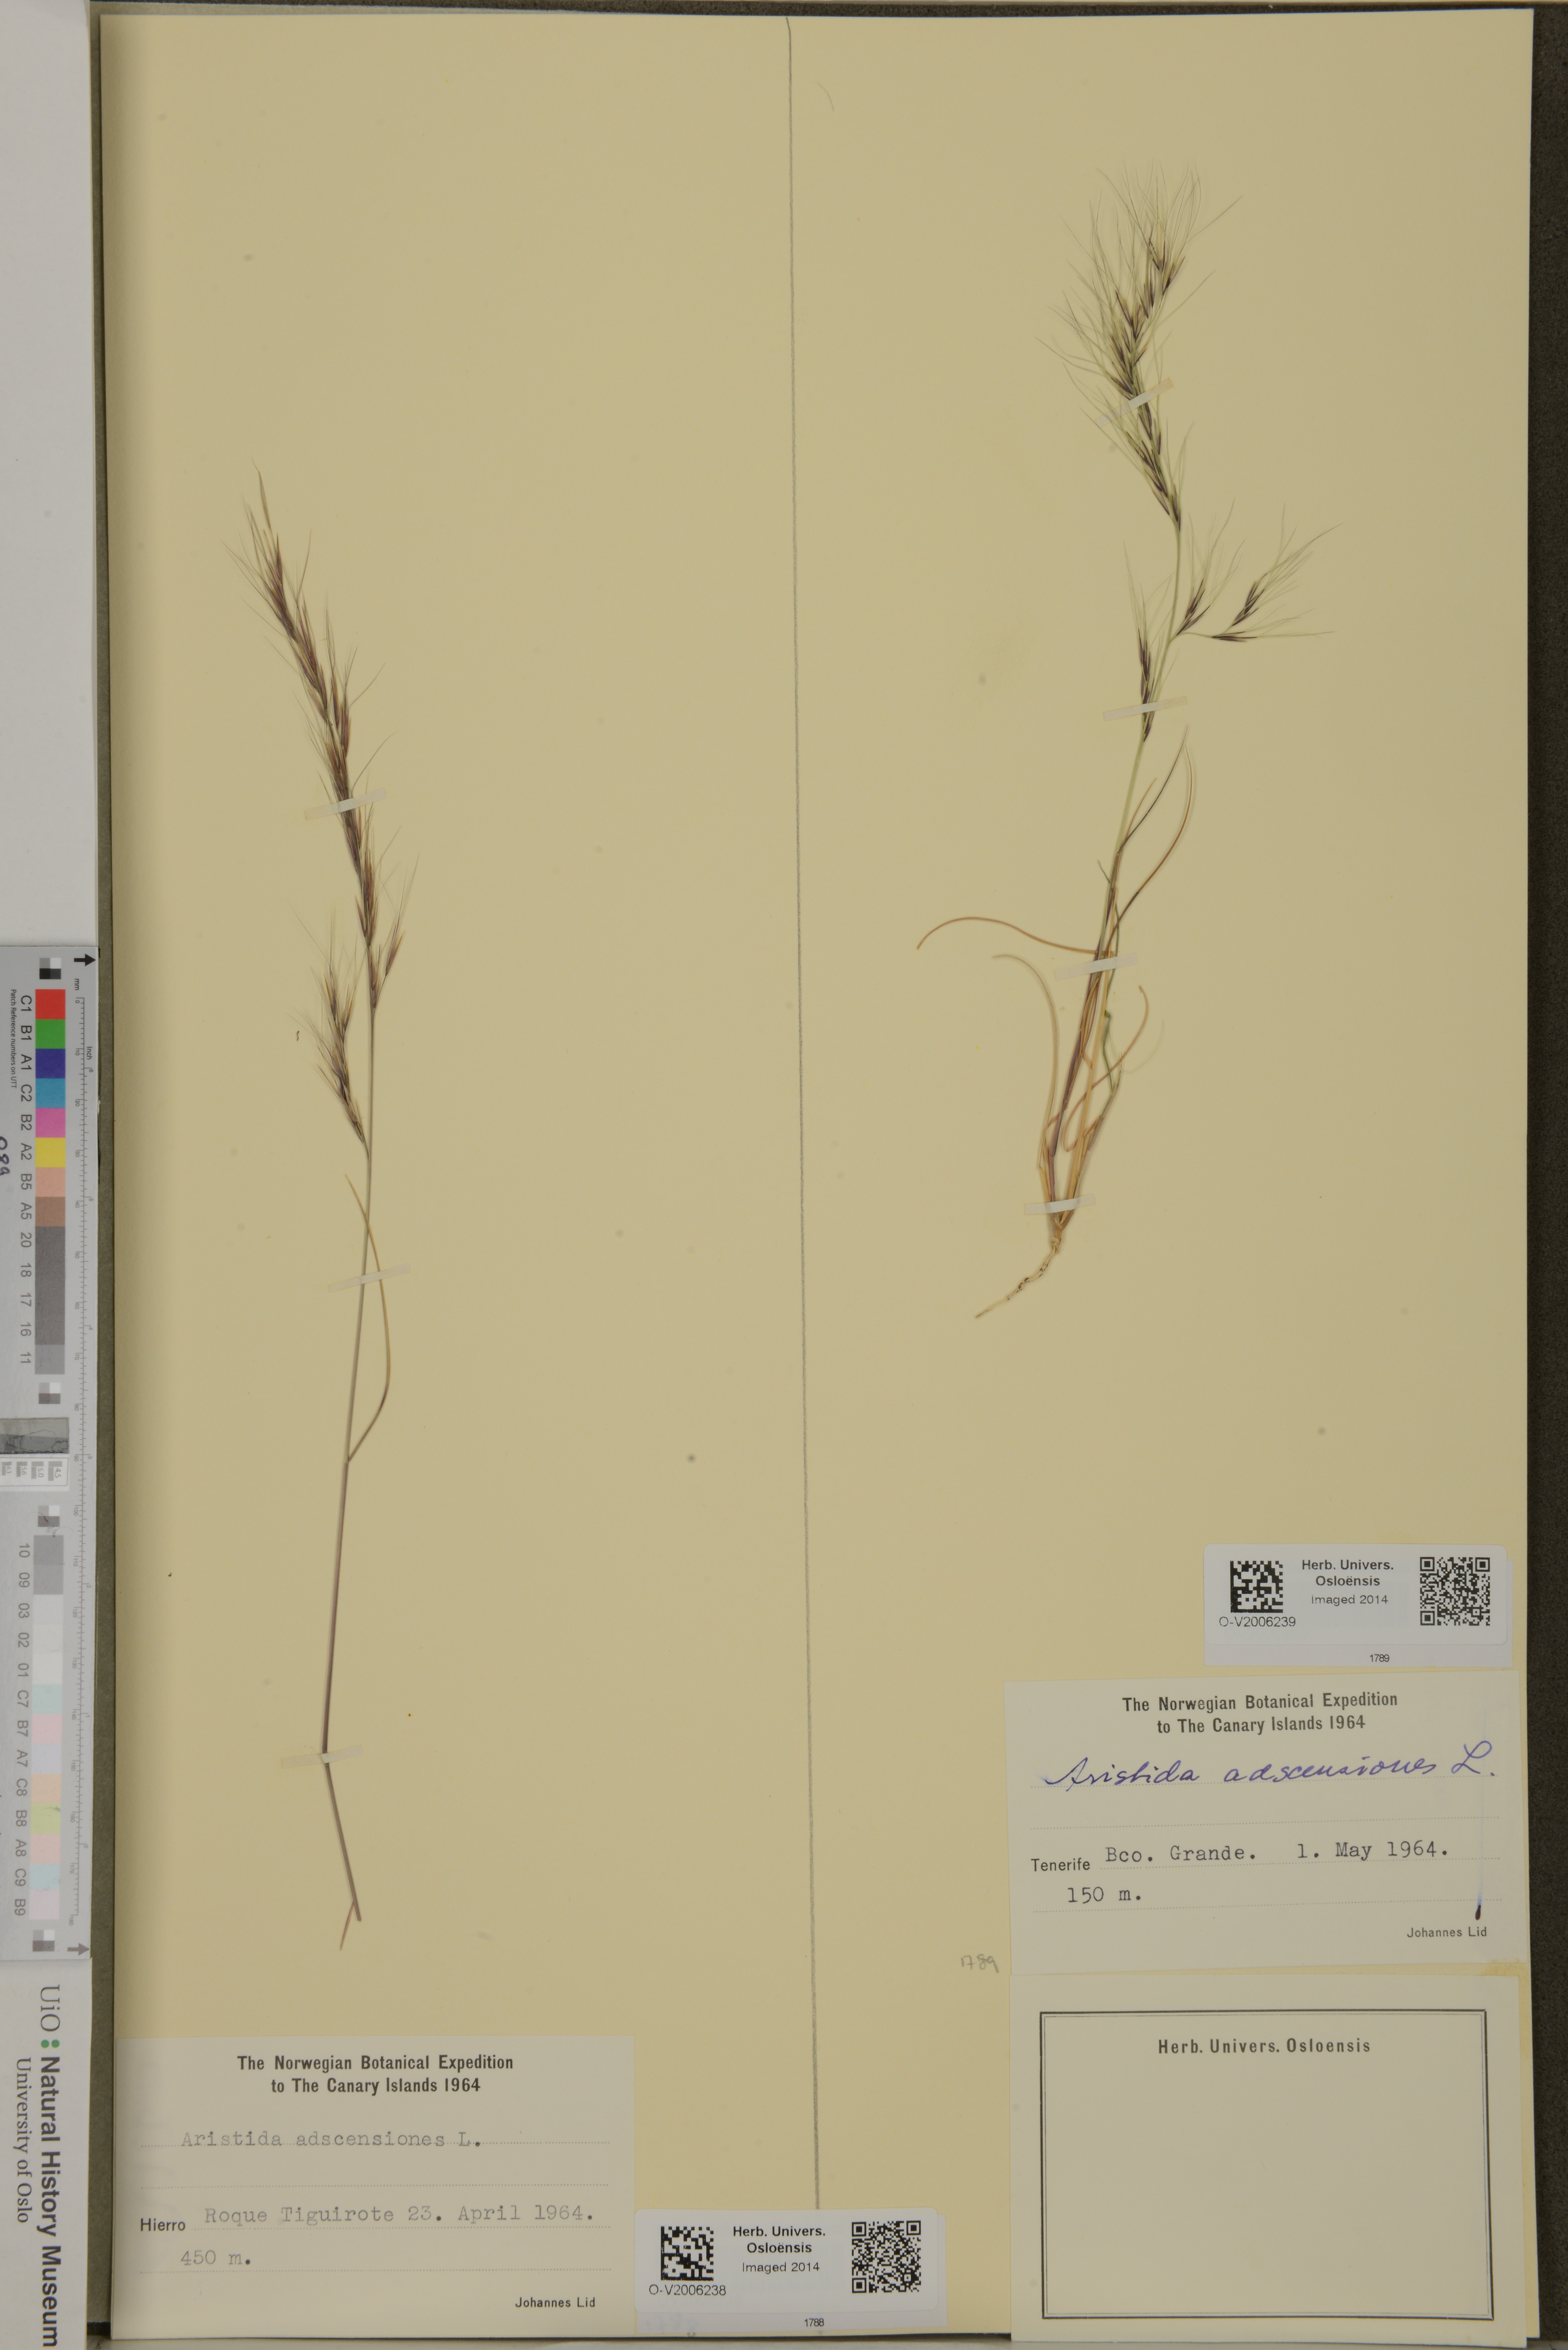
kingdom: Plantae
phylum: Tracheophyta
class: Liliopsida
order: Poales
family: Poaceae
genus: Aristida
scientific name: Aristida adscensionis
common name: Sixweeks threeawn
